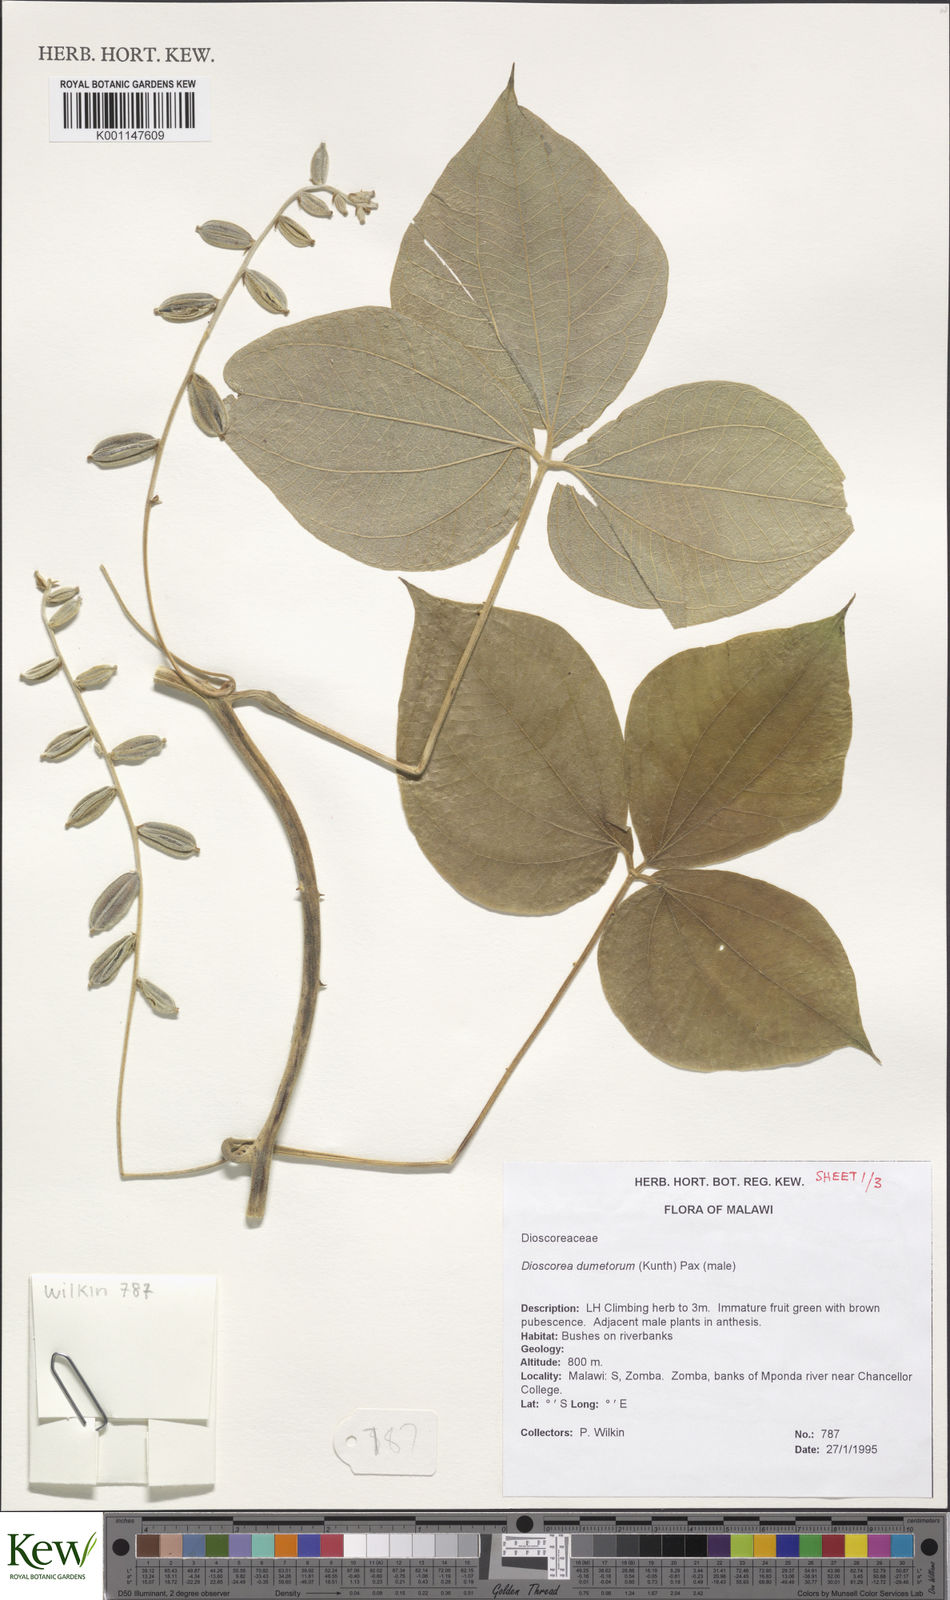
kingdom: Plantae
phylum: Tracheophyta
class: Liliopsida
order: Dioscoreales
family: Dioscoreaceae
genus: Dioscorea
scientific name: Dioscorea dumetorum
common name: African bitter yam
